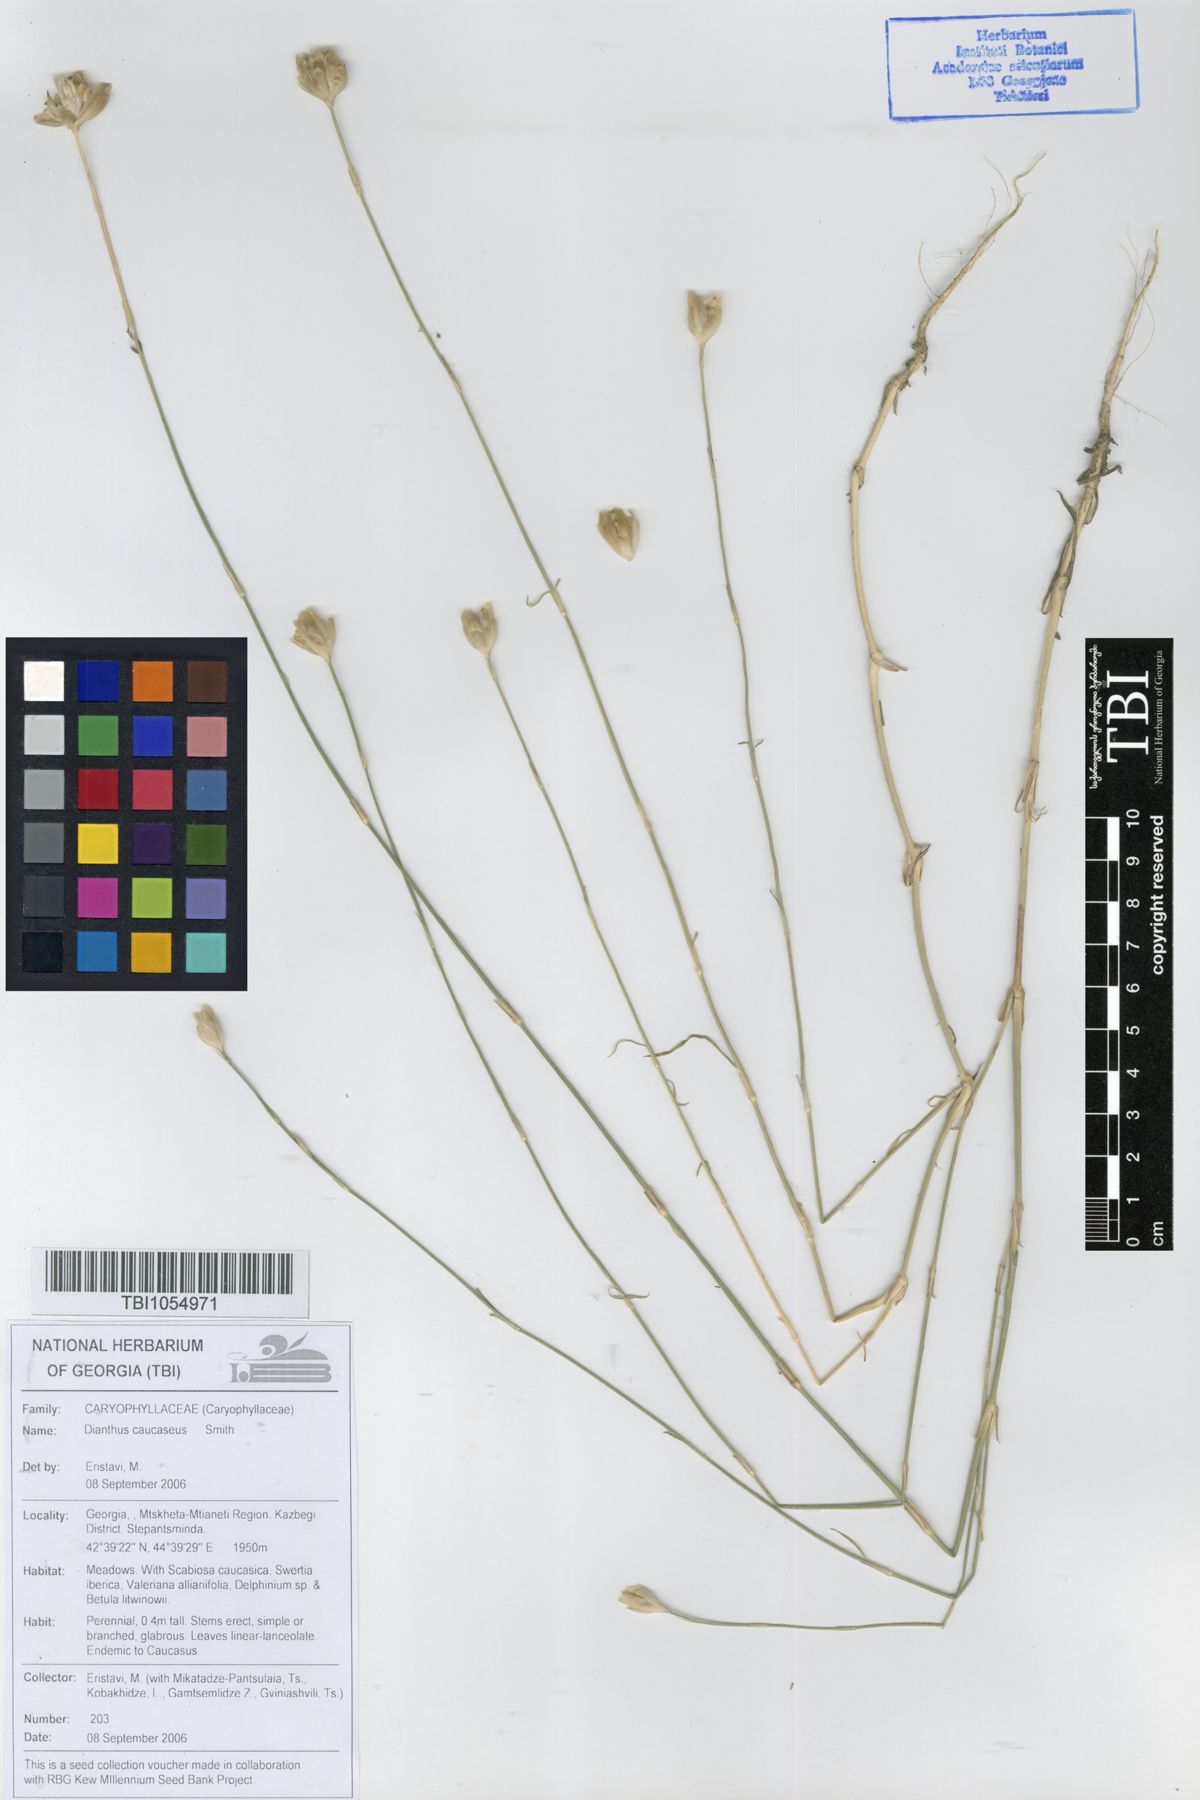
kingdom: Plantae
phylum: Tracheophyta
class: Magnoliopsida
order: Caryophyllales
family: Caryophyllaceae
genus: Dianthus
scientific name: Dianthus caucaseus
